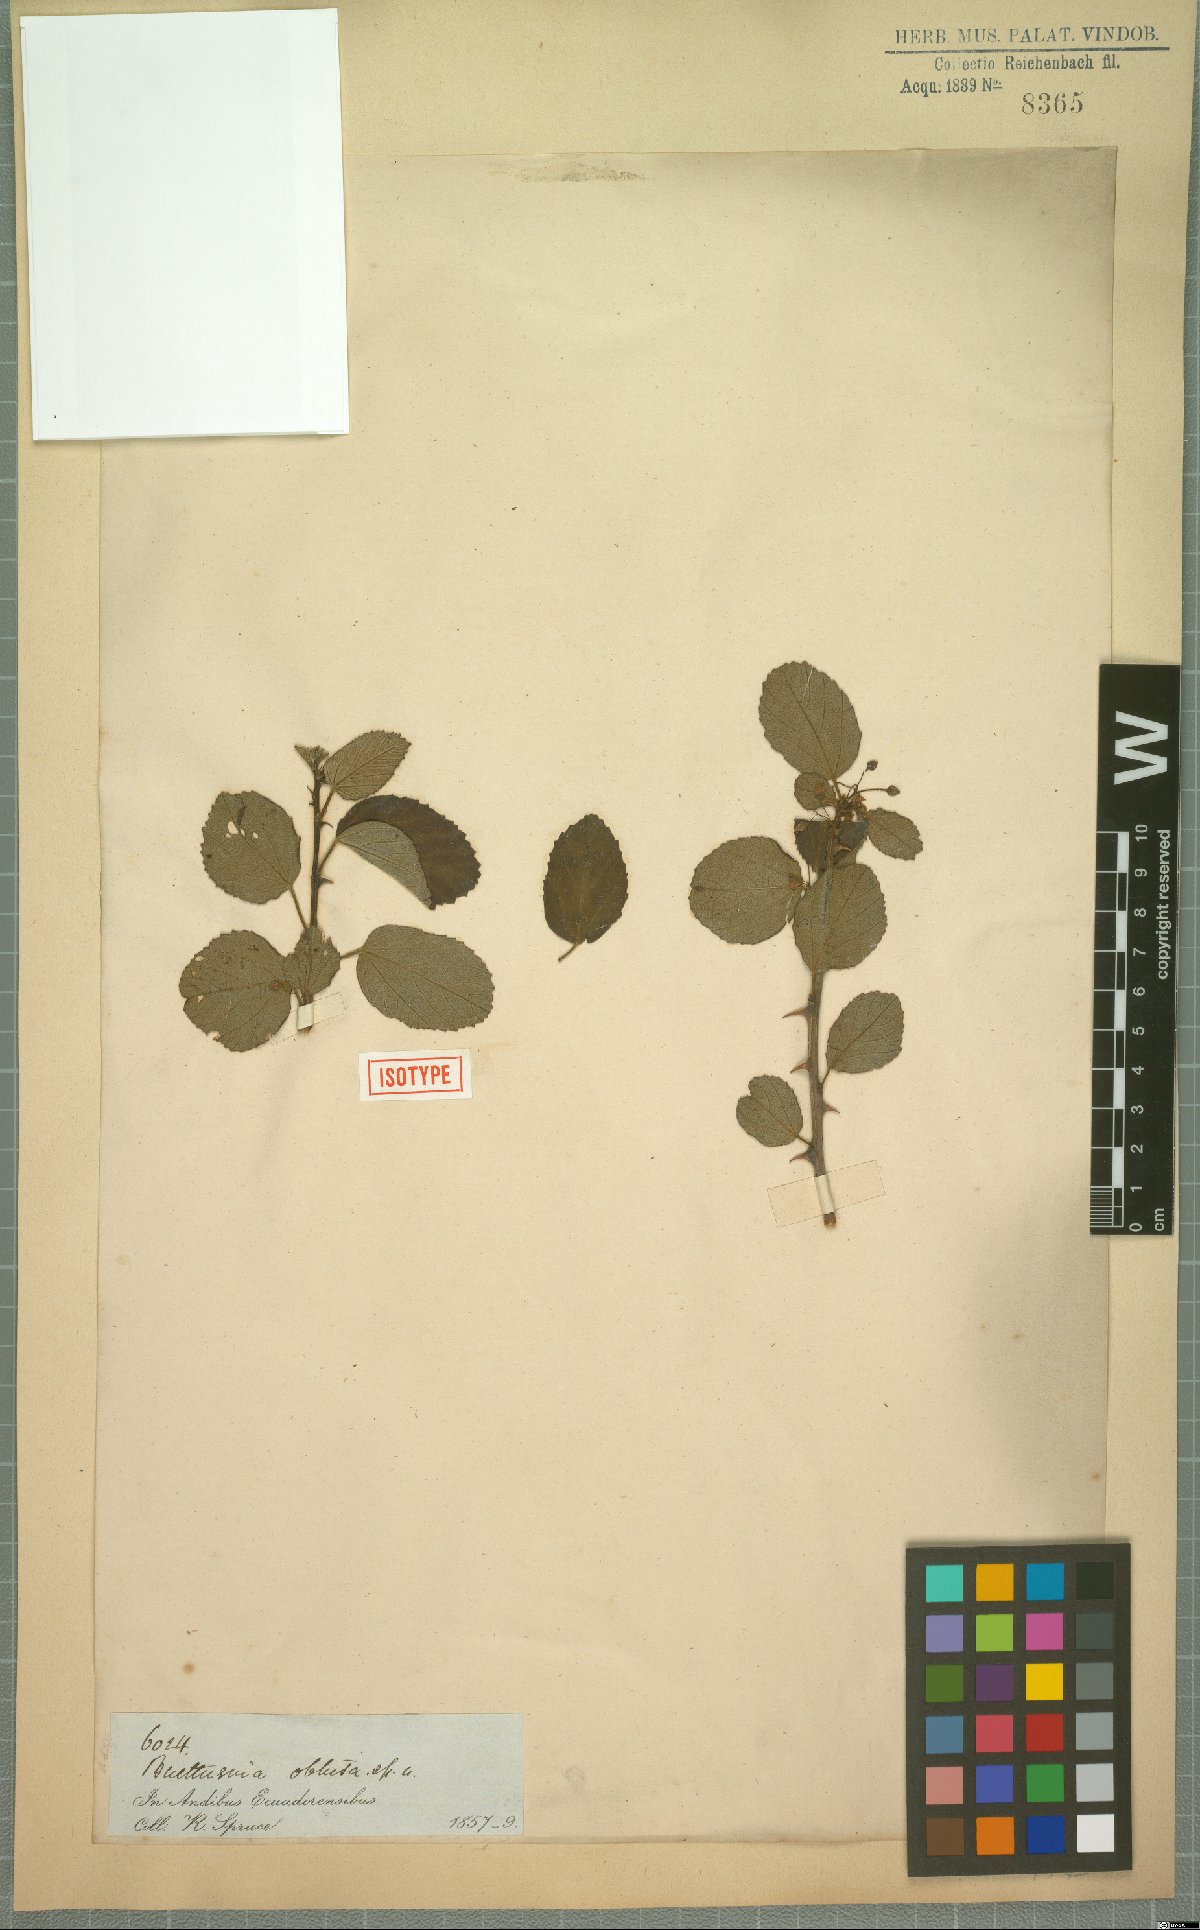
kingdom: Plantae
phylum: Tracheophyta
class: Magnoliopsida
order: Malvales
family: Malvaceae
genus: Byttneria
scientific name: Byttneria geminifolia
